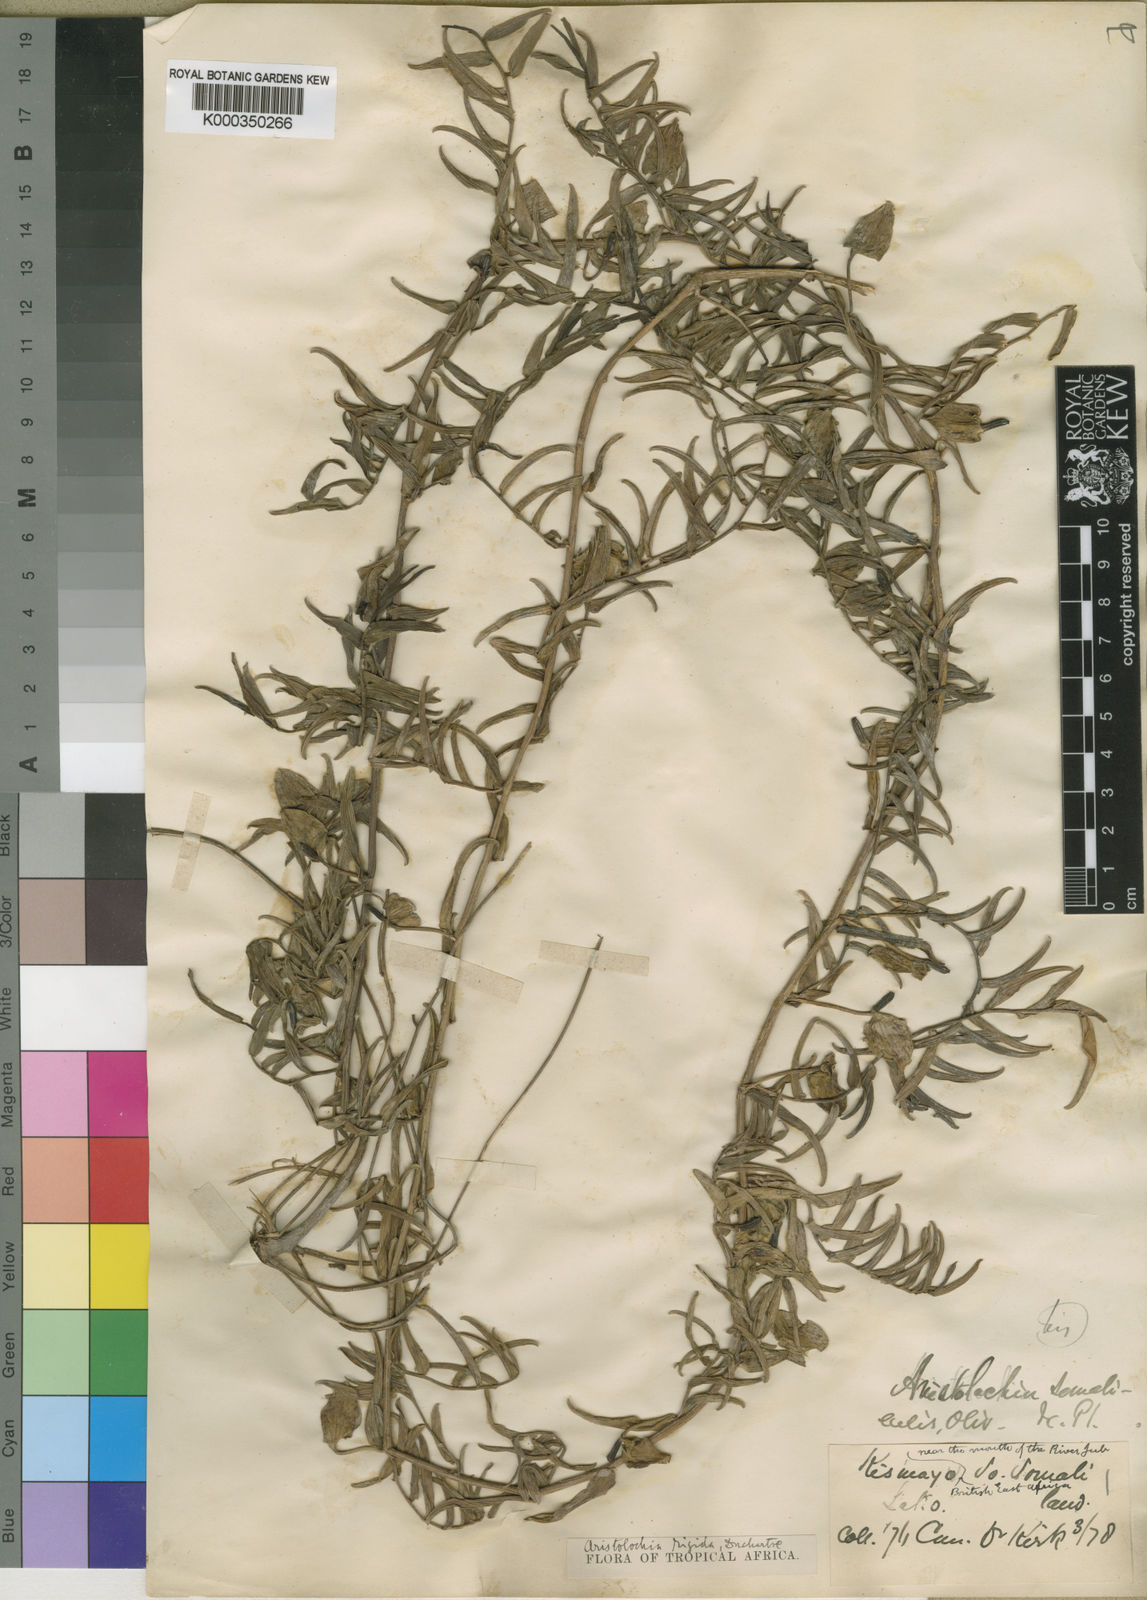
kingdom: Plantae
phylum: Tracheophyta
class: Magnoliopsida
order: Piperales
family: Aristolochiaceae
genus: Aristolochia
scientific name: Aristolochia rigida
